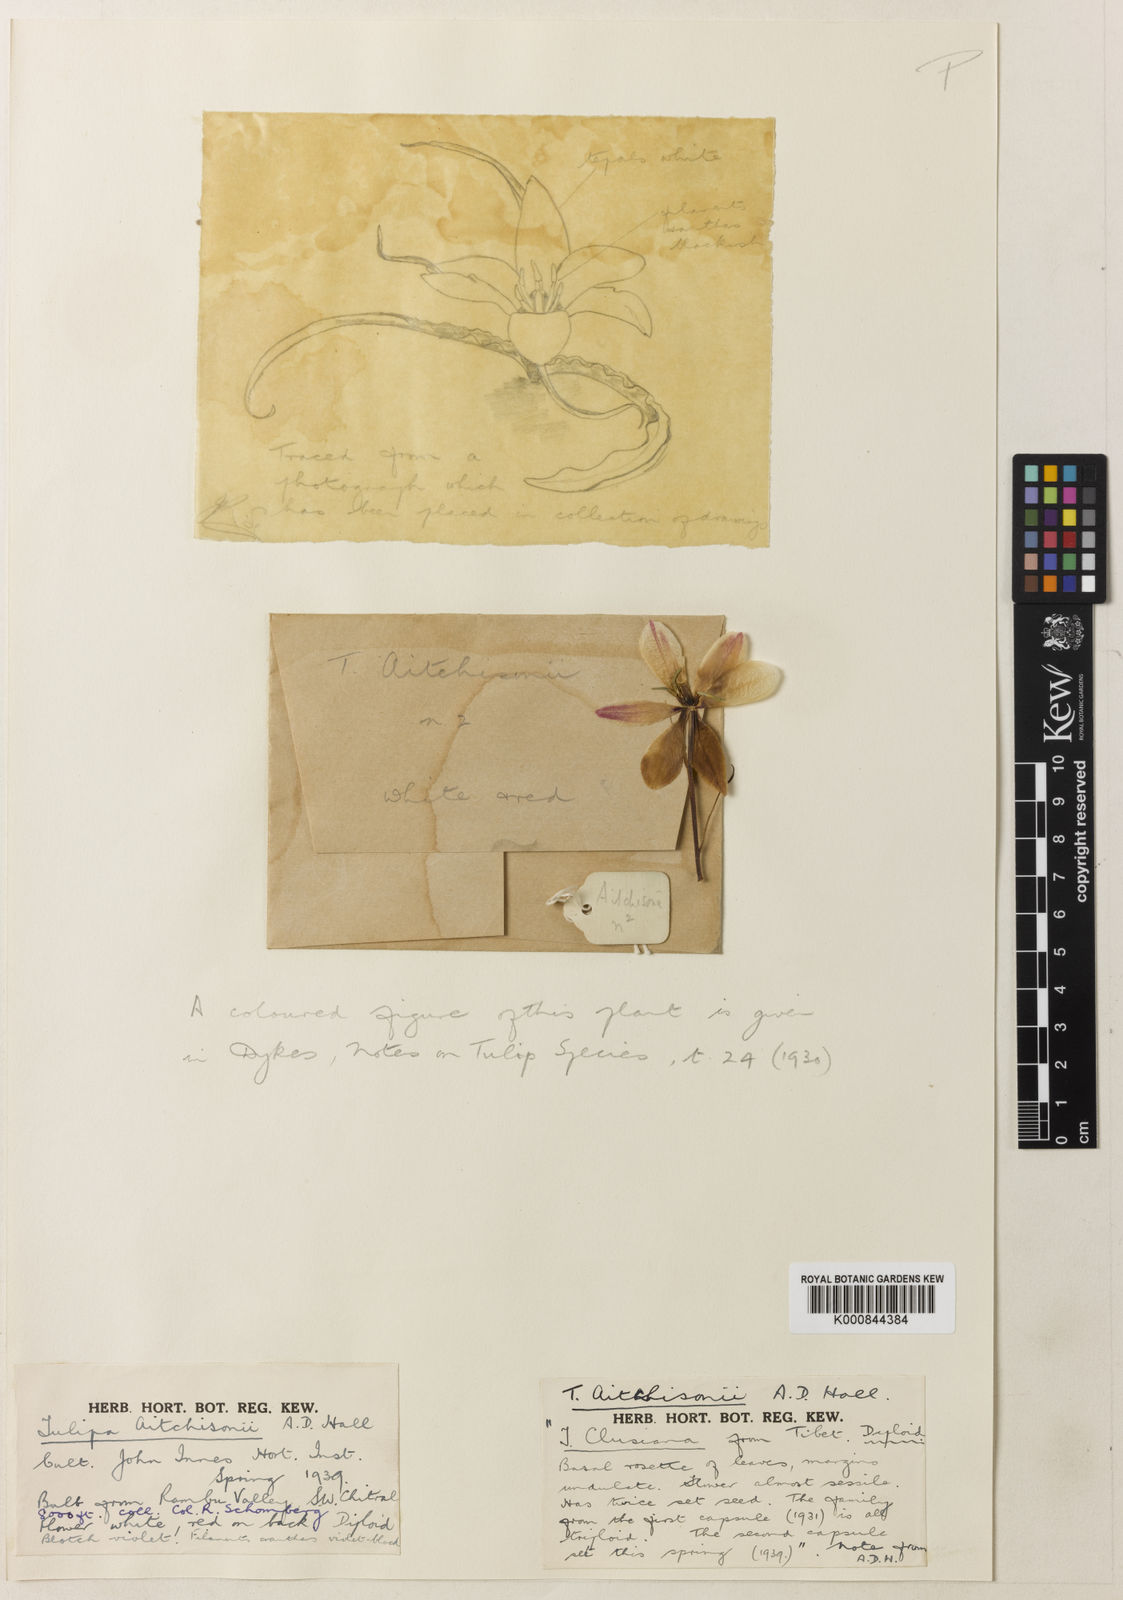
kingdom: Plantae
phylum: Tracheophyta
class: Liliopsida
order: Liliales
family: Liliaceae
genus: Tulipa
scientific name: Tulipa
